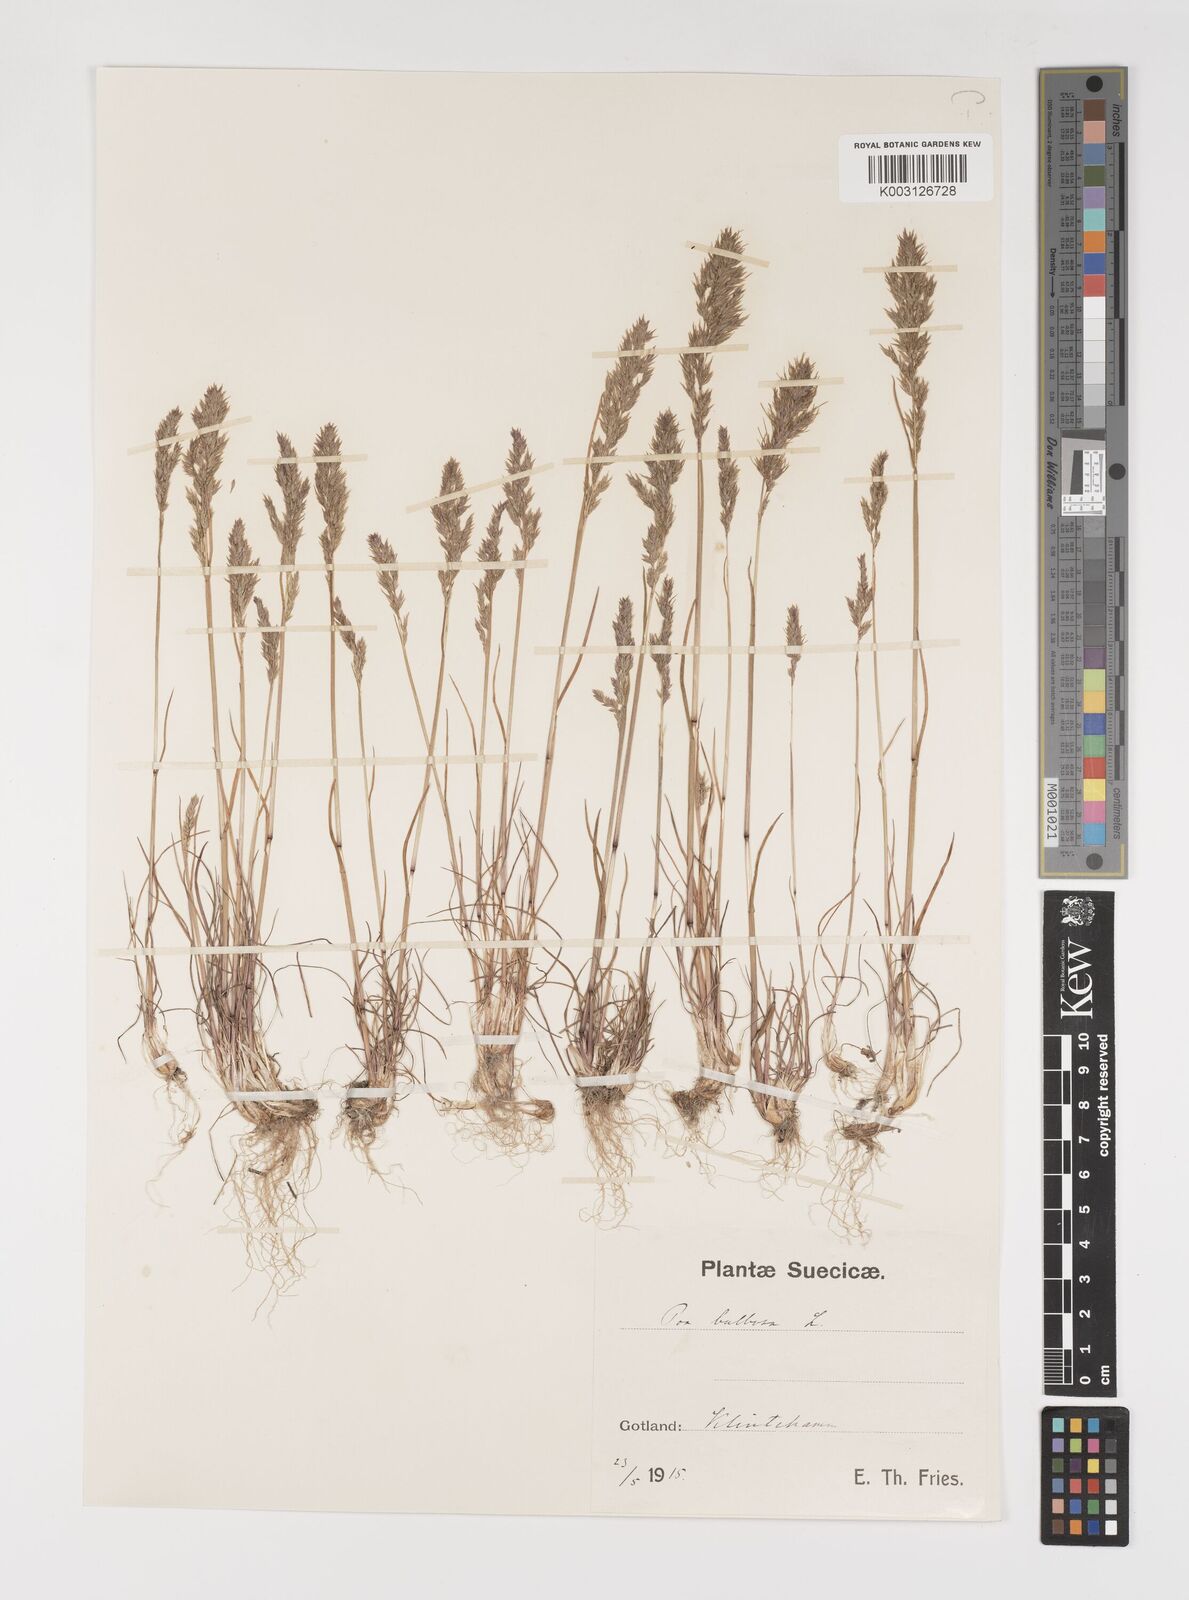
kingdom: Plantae
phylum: Tracheophyta
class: Liliopsida
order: Poales
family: Poaceae
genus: Poa
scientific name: Poa bulbosa
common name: Bulbous bluegrass
